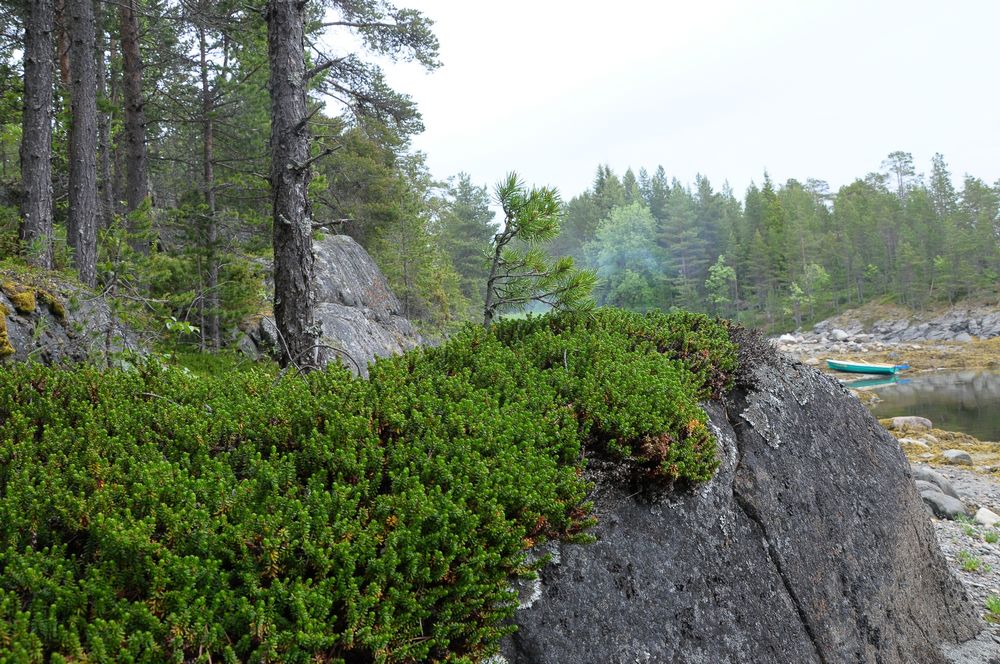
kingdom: Plantae
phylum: Tracheophyta
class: Magnoliopsida
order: Ericales
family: Ericaceae
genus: Empetrum
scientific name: Empetrum hermaphroditum
